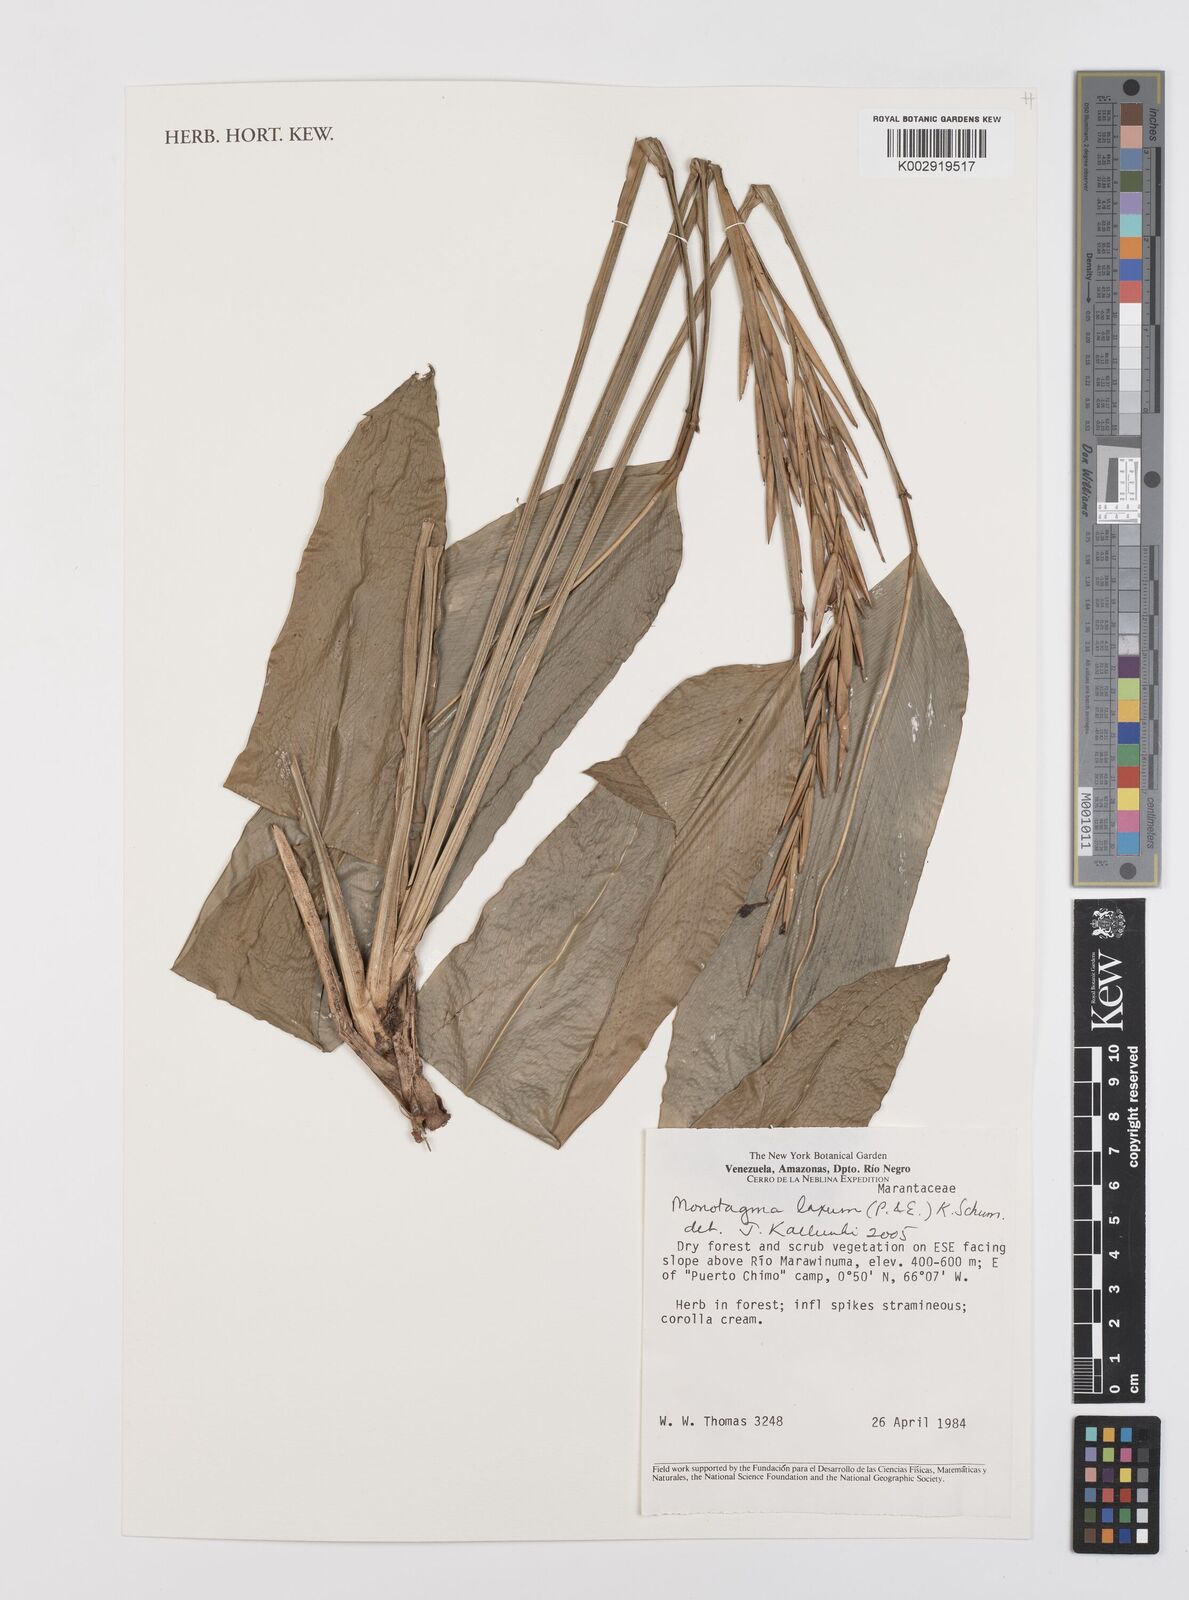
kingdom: Plantae
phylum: Tracheophyta
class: Liliopsida
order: Zingiberales
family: Marantaceae
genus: Monotagma
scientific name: Monotagma laxum
